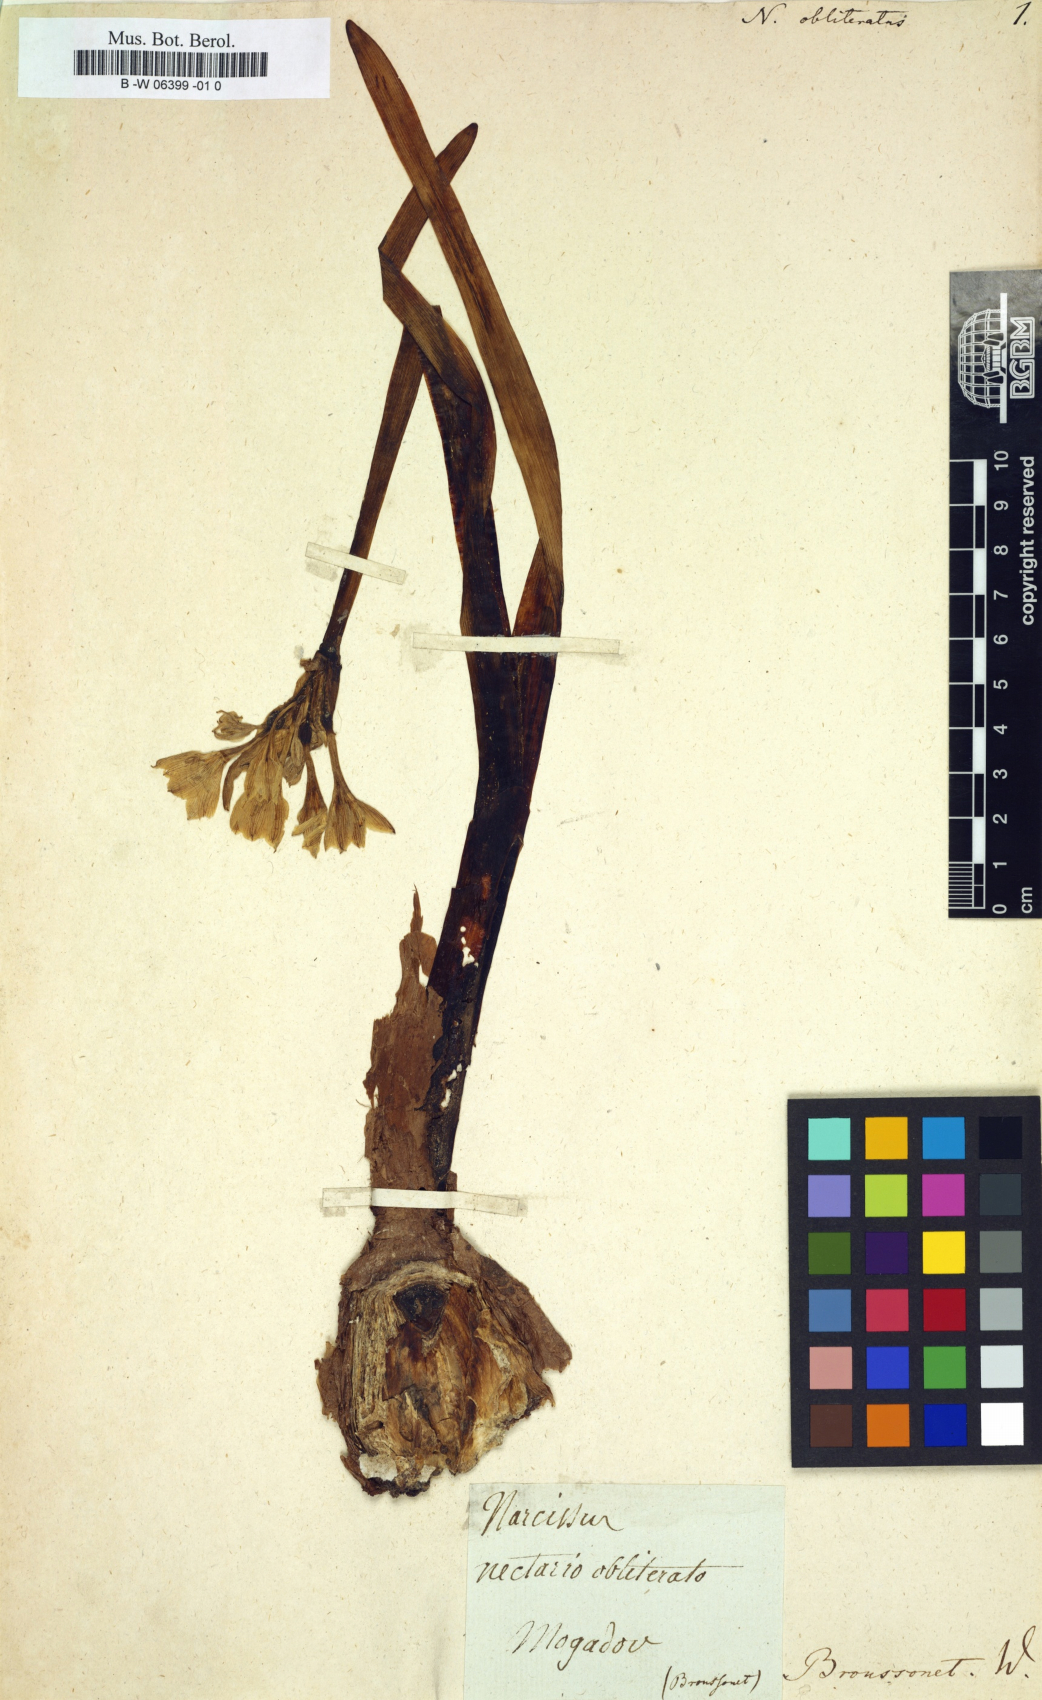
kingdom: Plantae
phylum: Tracheophyta
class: Liliopsida
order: Asparagales
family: Amaryllidaceae
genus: Narcissus
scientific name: Narcissus broussonetii
